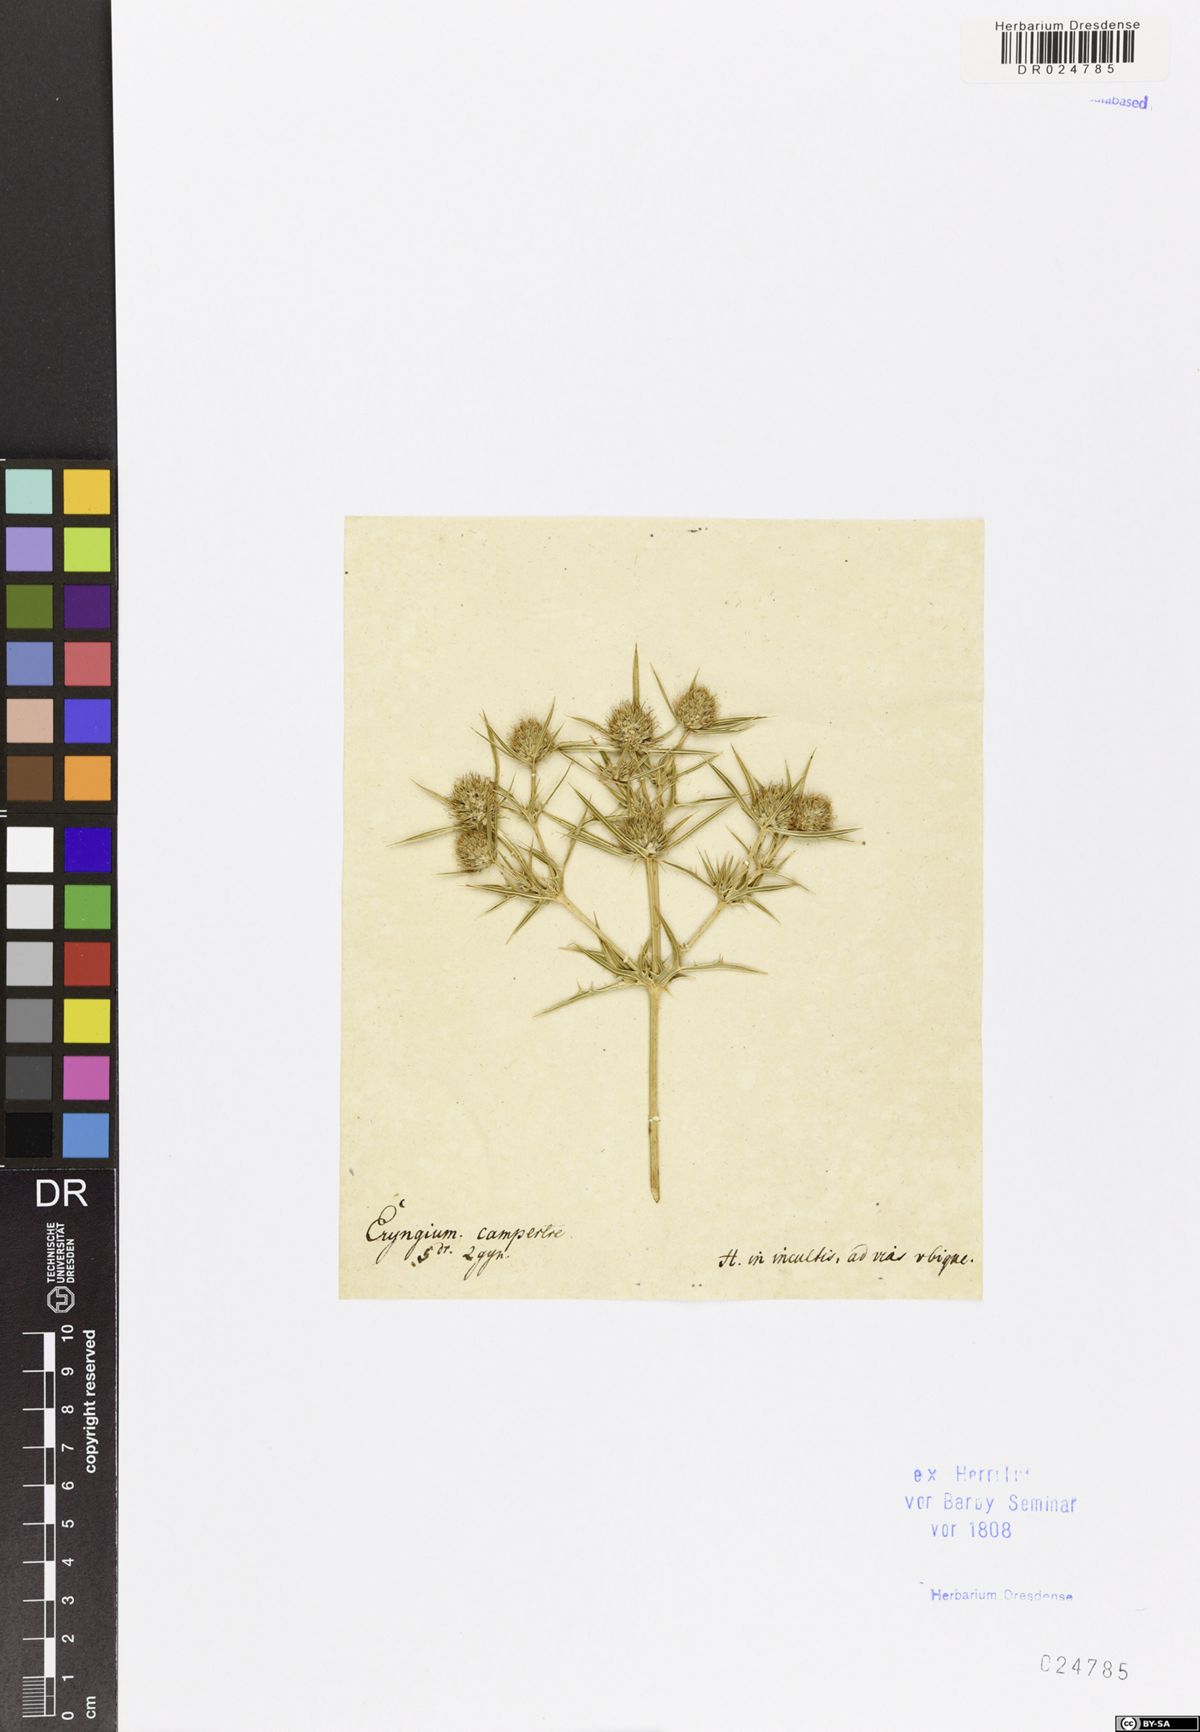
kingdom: Plantae
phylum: Tracheophyta
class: Magnoliopsida
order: Apiales
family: Apiaceae
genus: Eryngium
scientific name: Eryngium campestre
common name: Field eryngo
